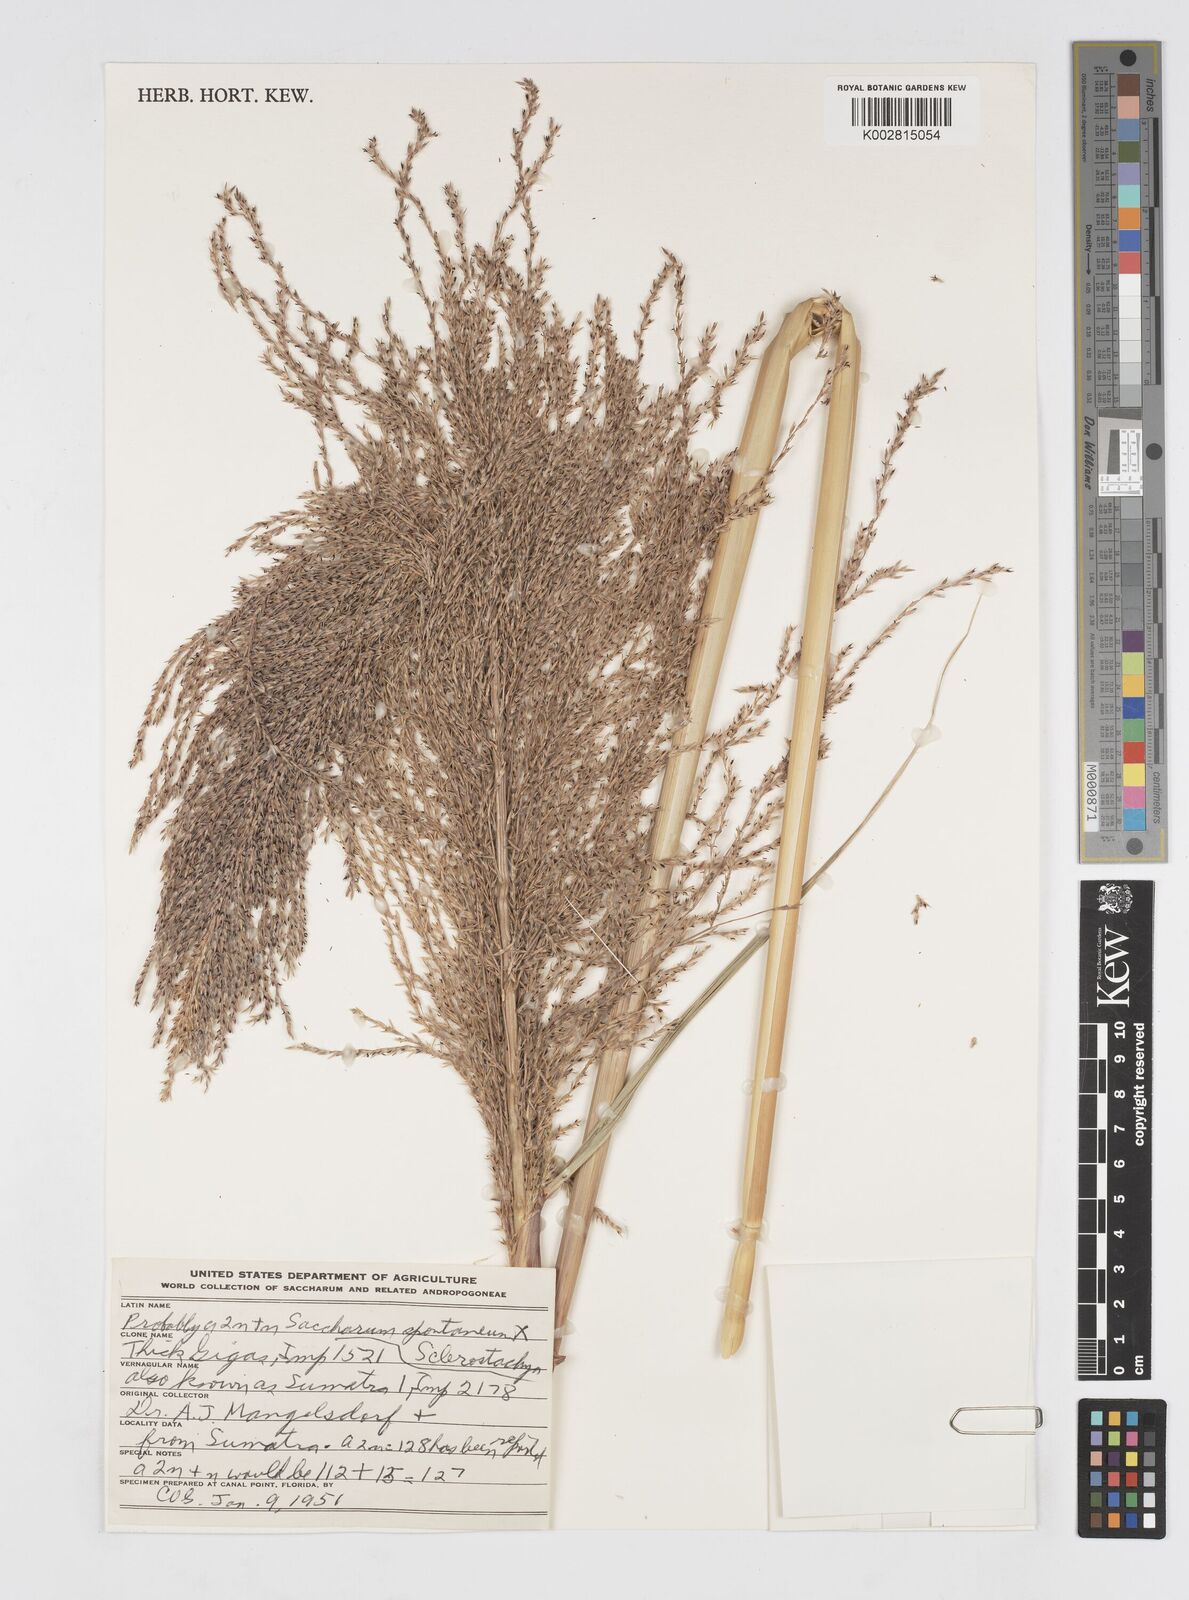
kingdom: Plantae
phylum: Tracheophyta
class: Liliopsida
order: Poales
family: Poaceae
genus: Saccharum
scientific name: Saccharum
